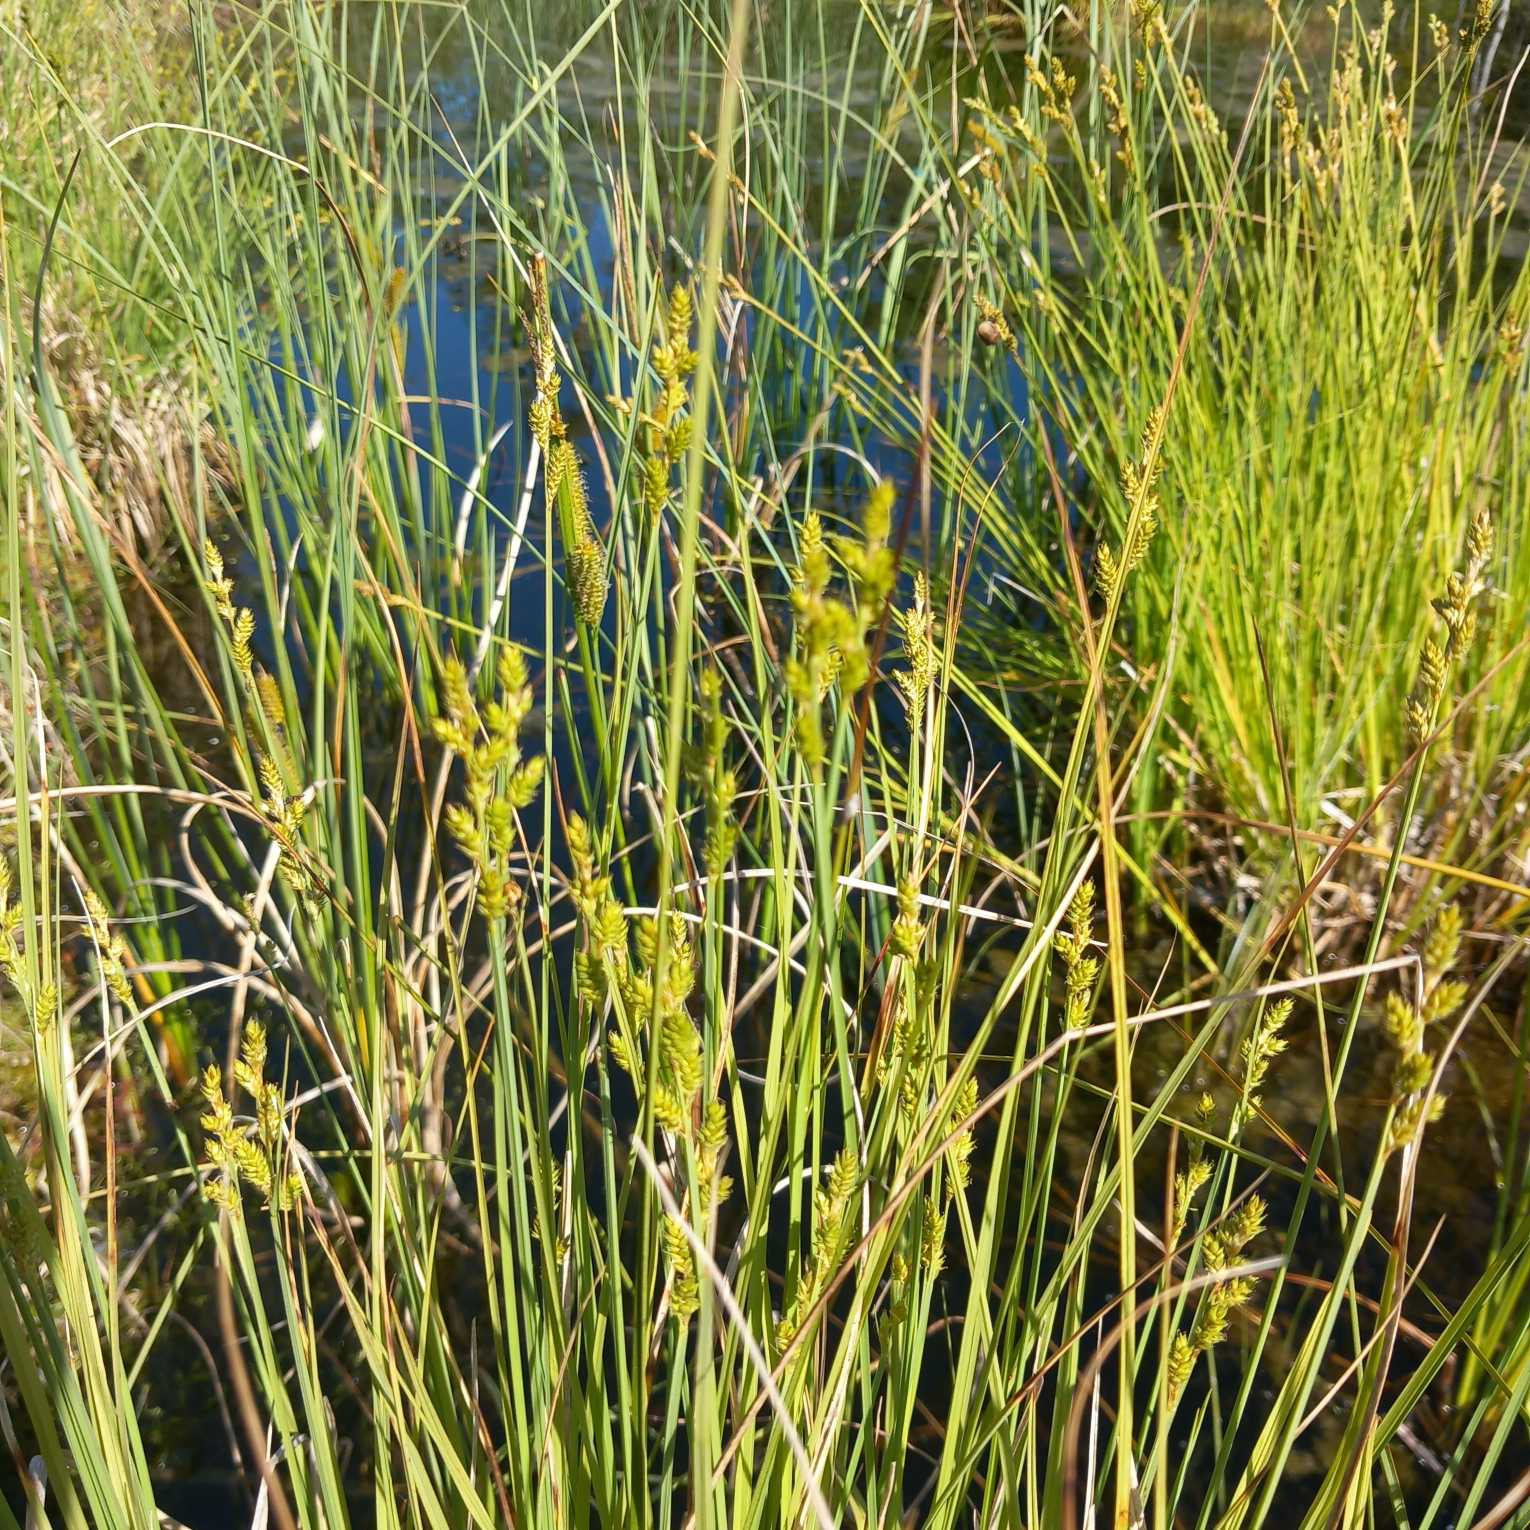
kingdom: Plantae
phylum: Tracheophyta
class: Liliopsida
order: Poales
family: Cyperaceae
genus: Carex
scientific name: Carex canescens
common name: Grå star
